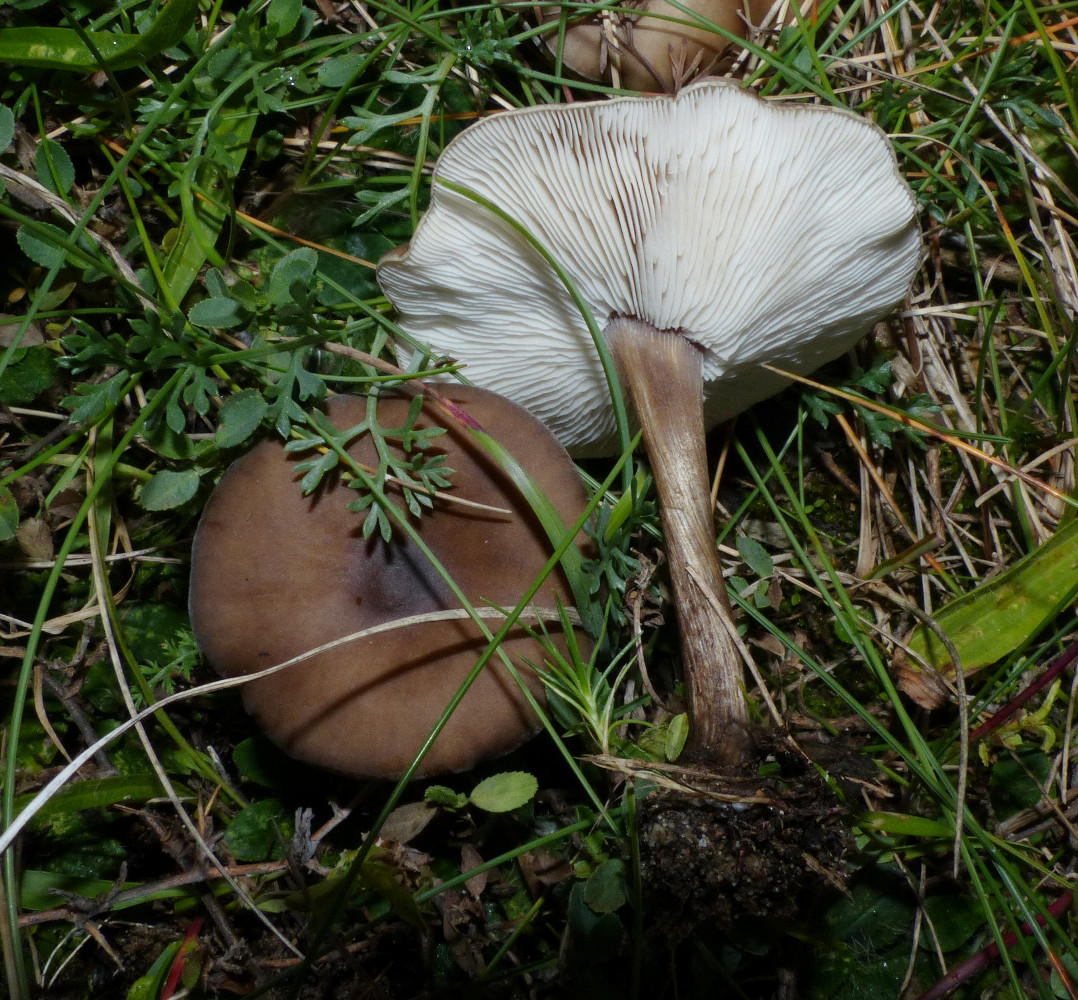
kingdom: Fungi
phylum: Basidiomycota
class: Agaricomycetes
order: Agaricales
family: Tricholomataceae
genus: Melanoleuca
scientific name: Melanoleuca
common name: munkehat
